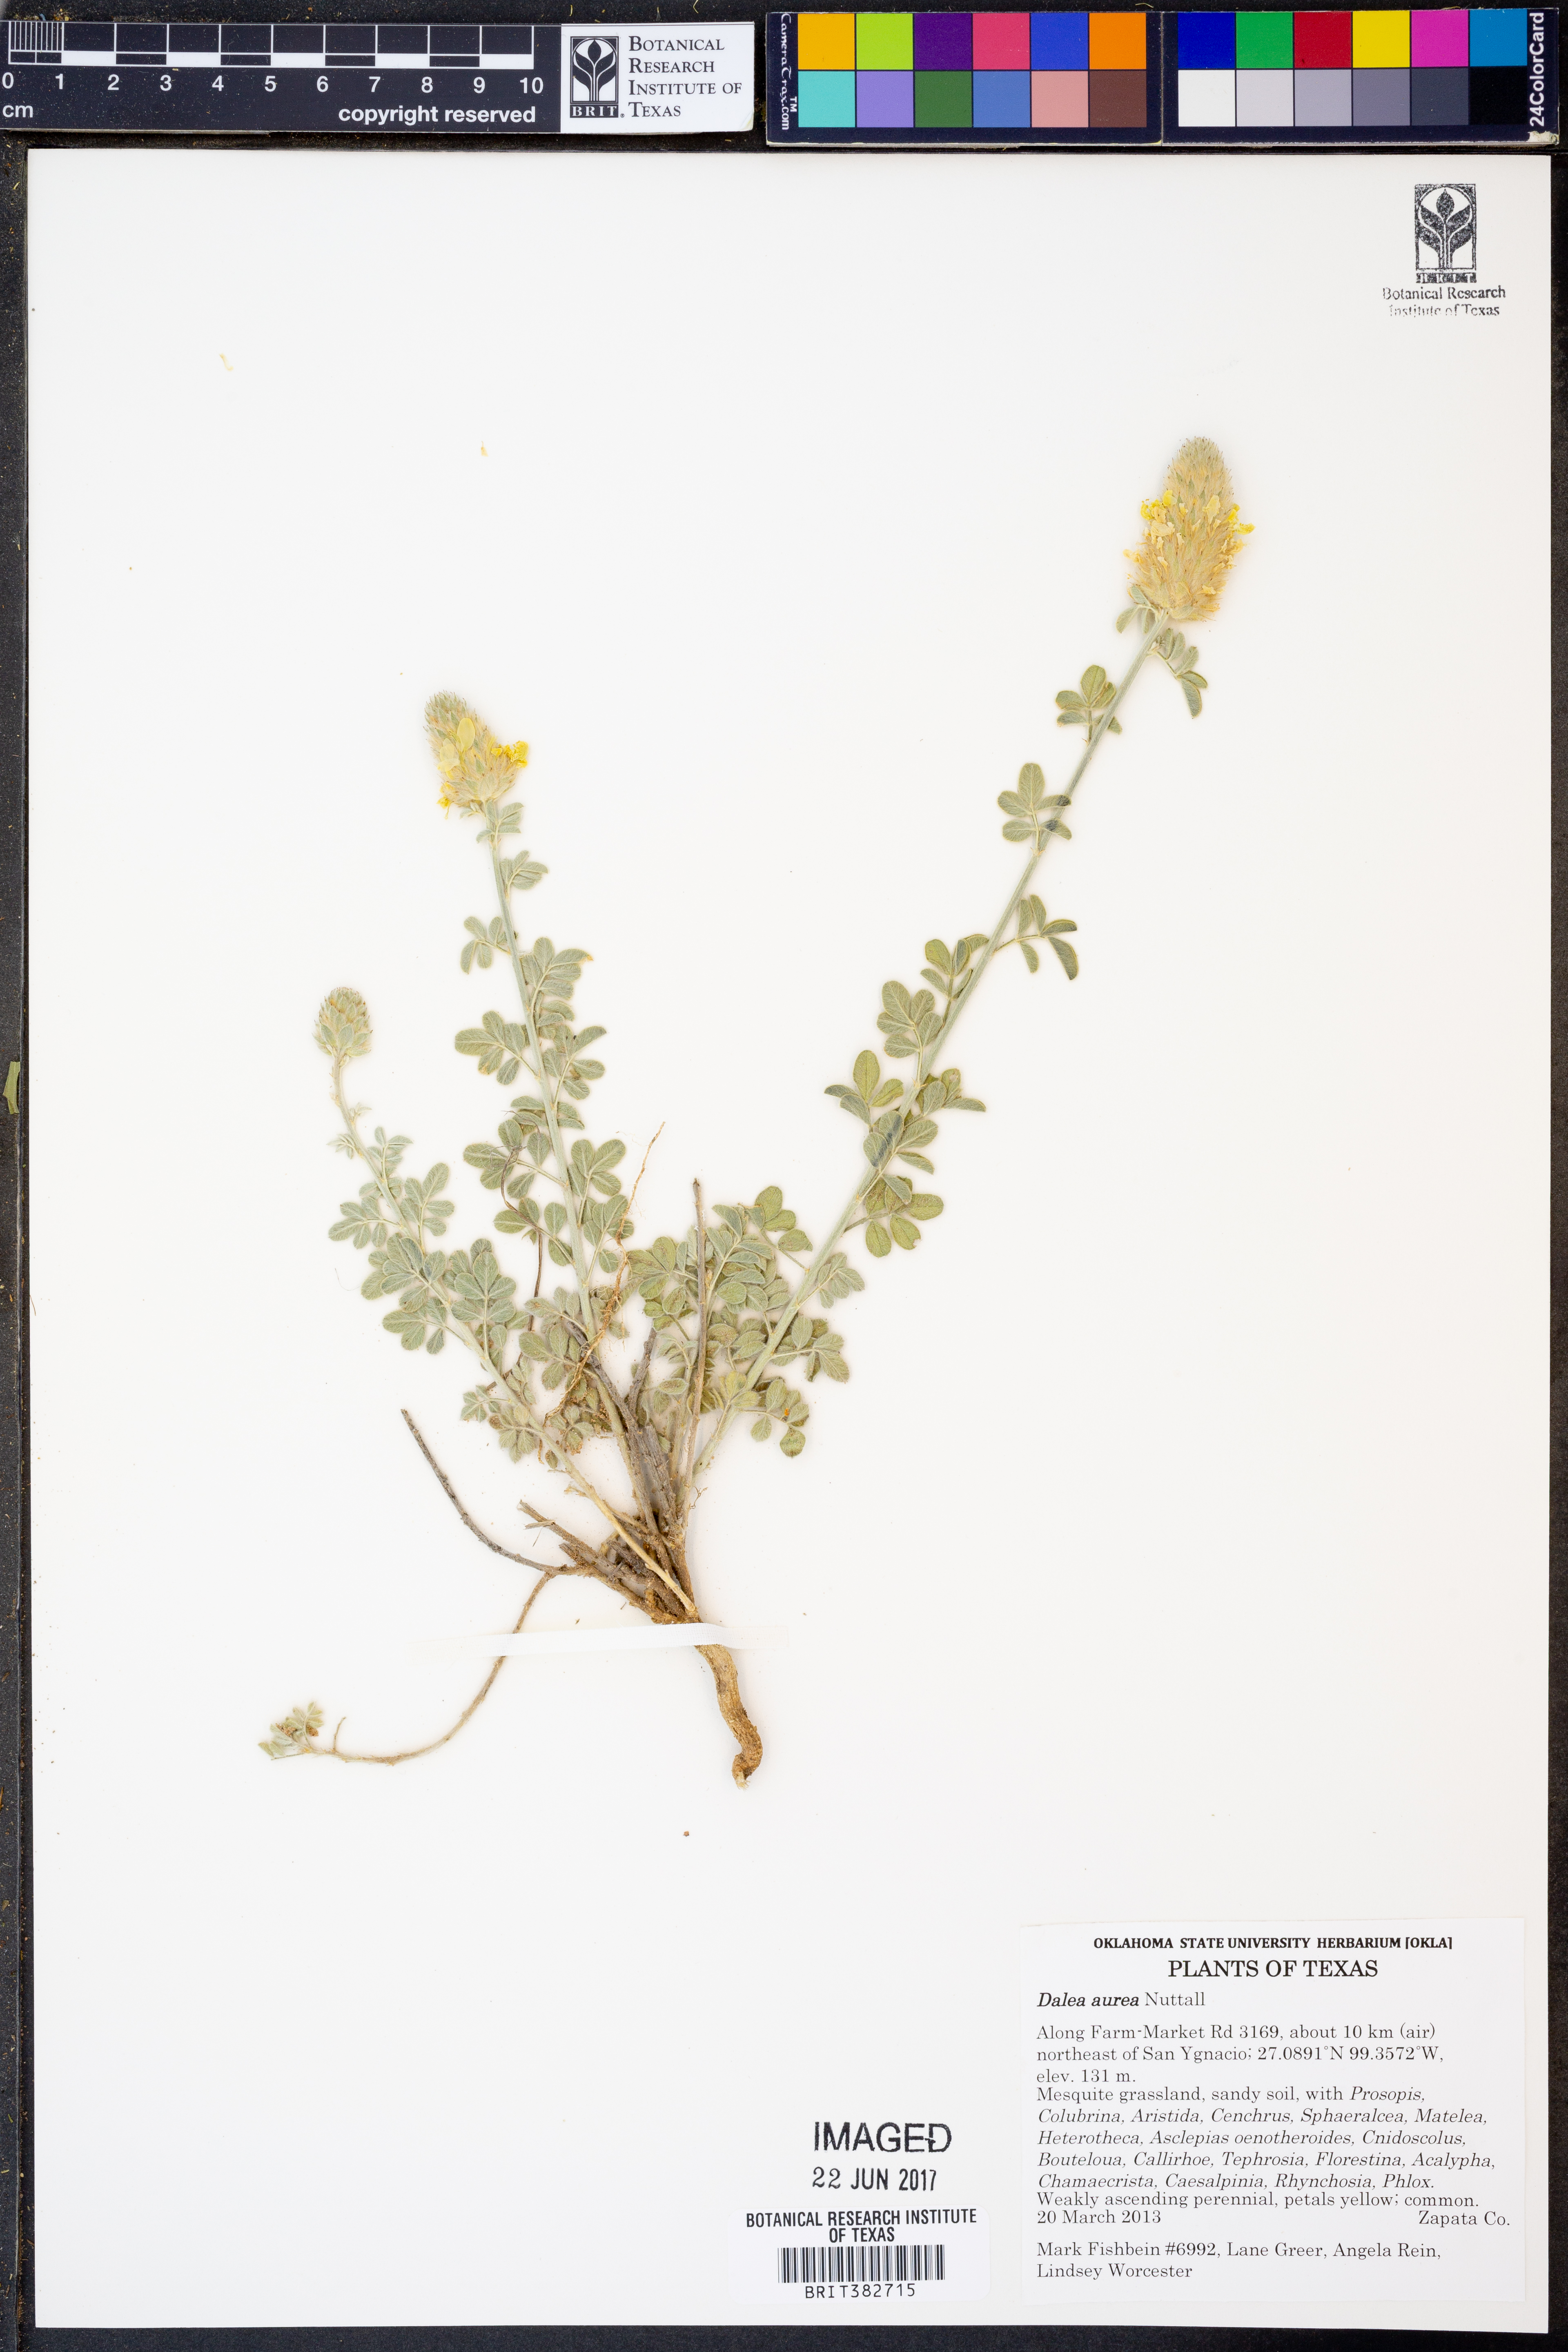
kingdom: Plantae
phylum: Tracheophyta
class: Magnoliopsida
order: Fabales
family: Fabaceae
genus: Dalea
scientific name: Dalea aurea
